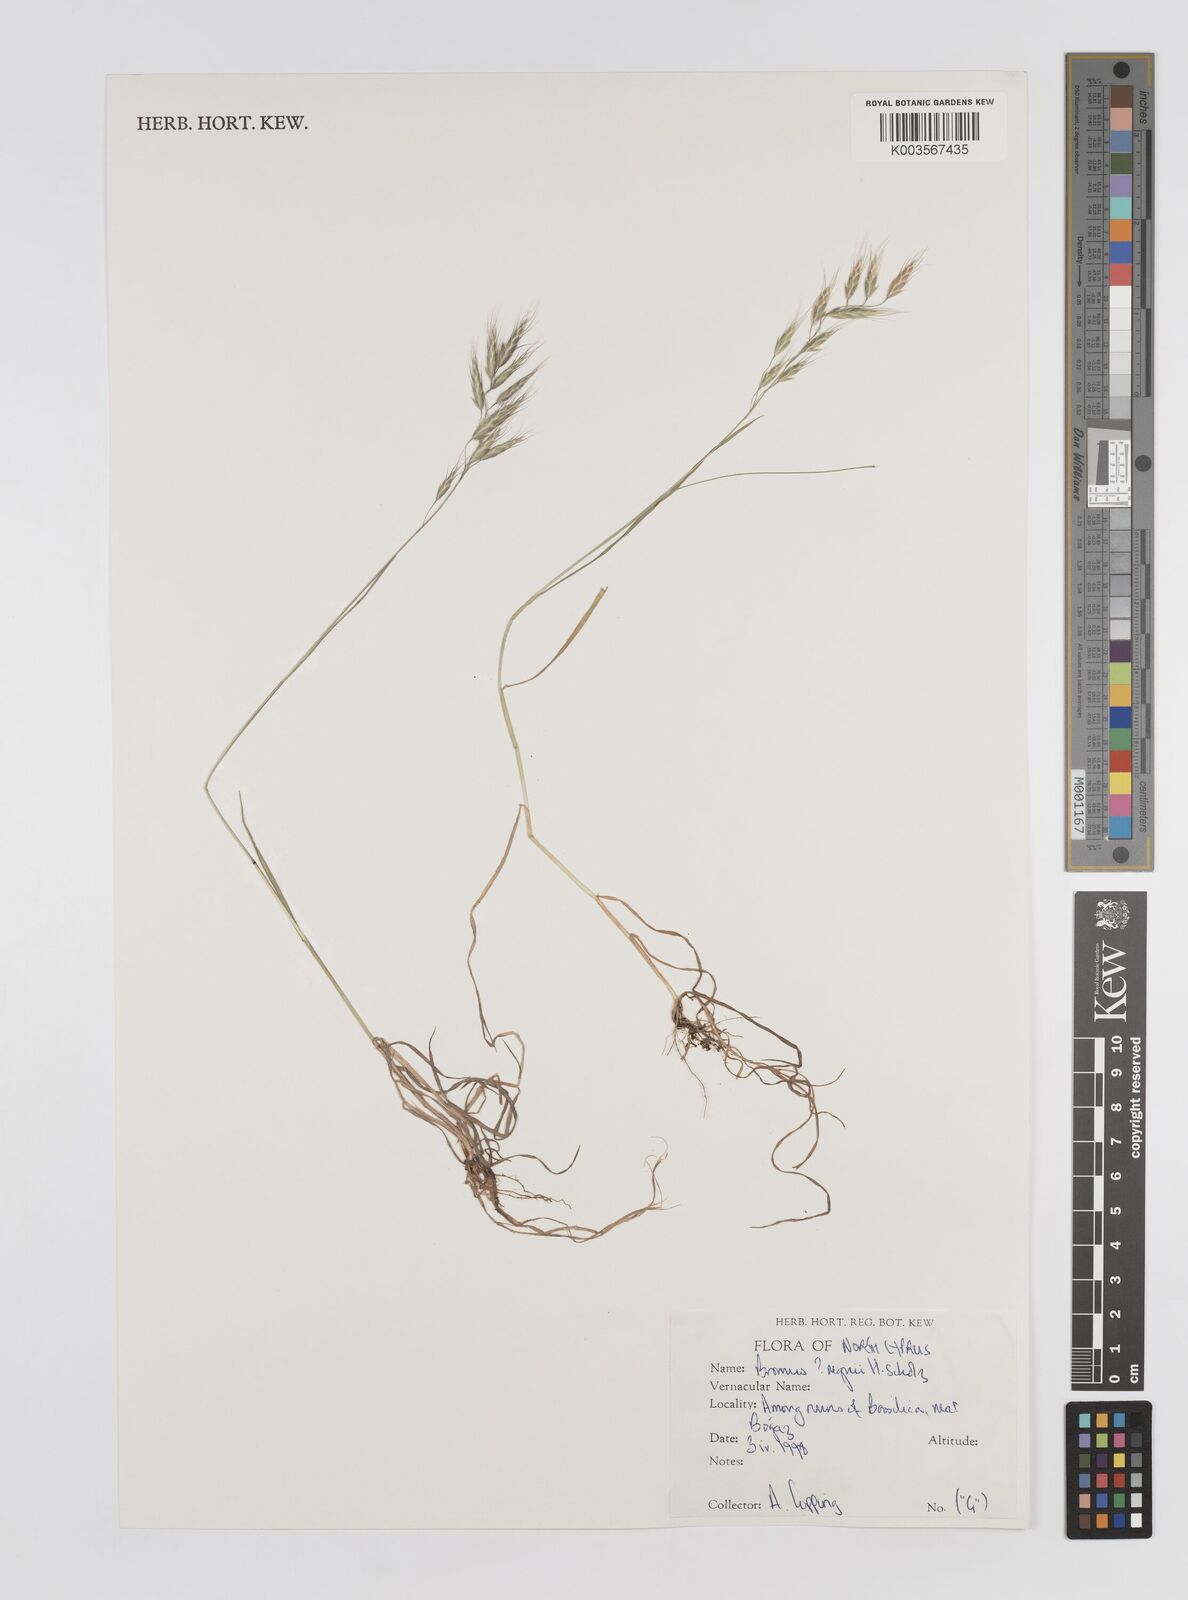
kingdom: Plantae
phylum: Tracheophyta
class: Liliopsida
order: Poales
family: Poaceae
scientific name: Poaceae
